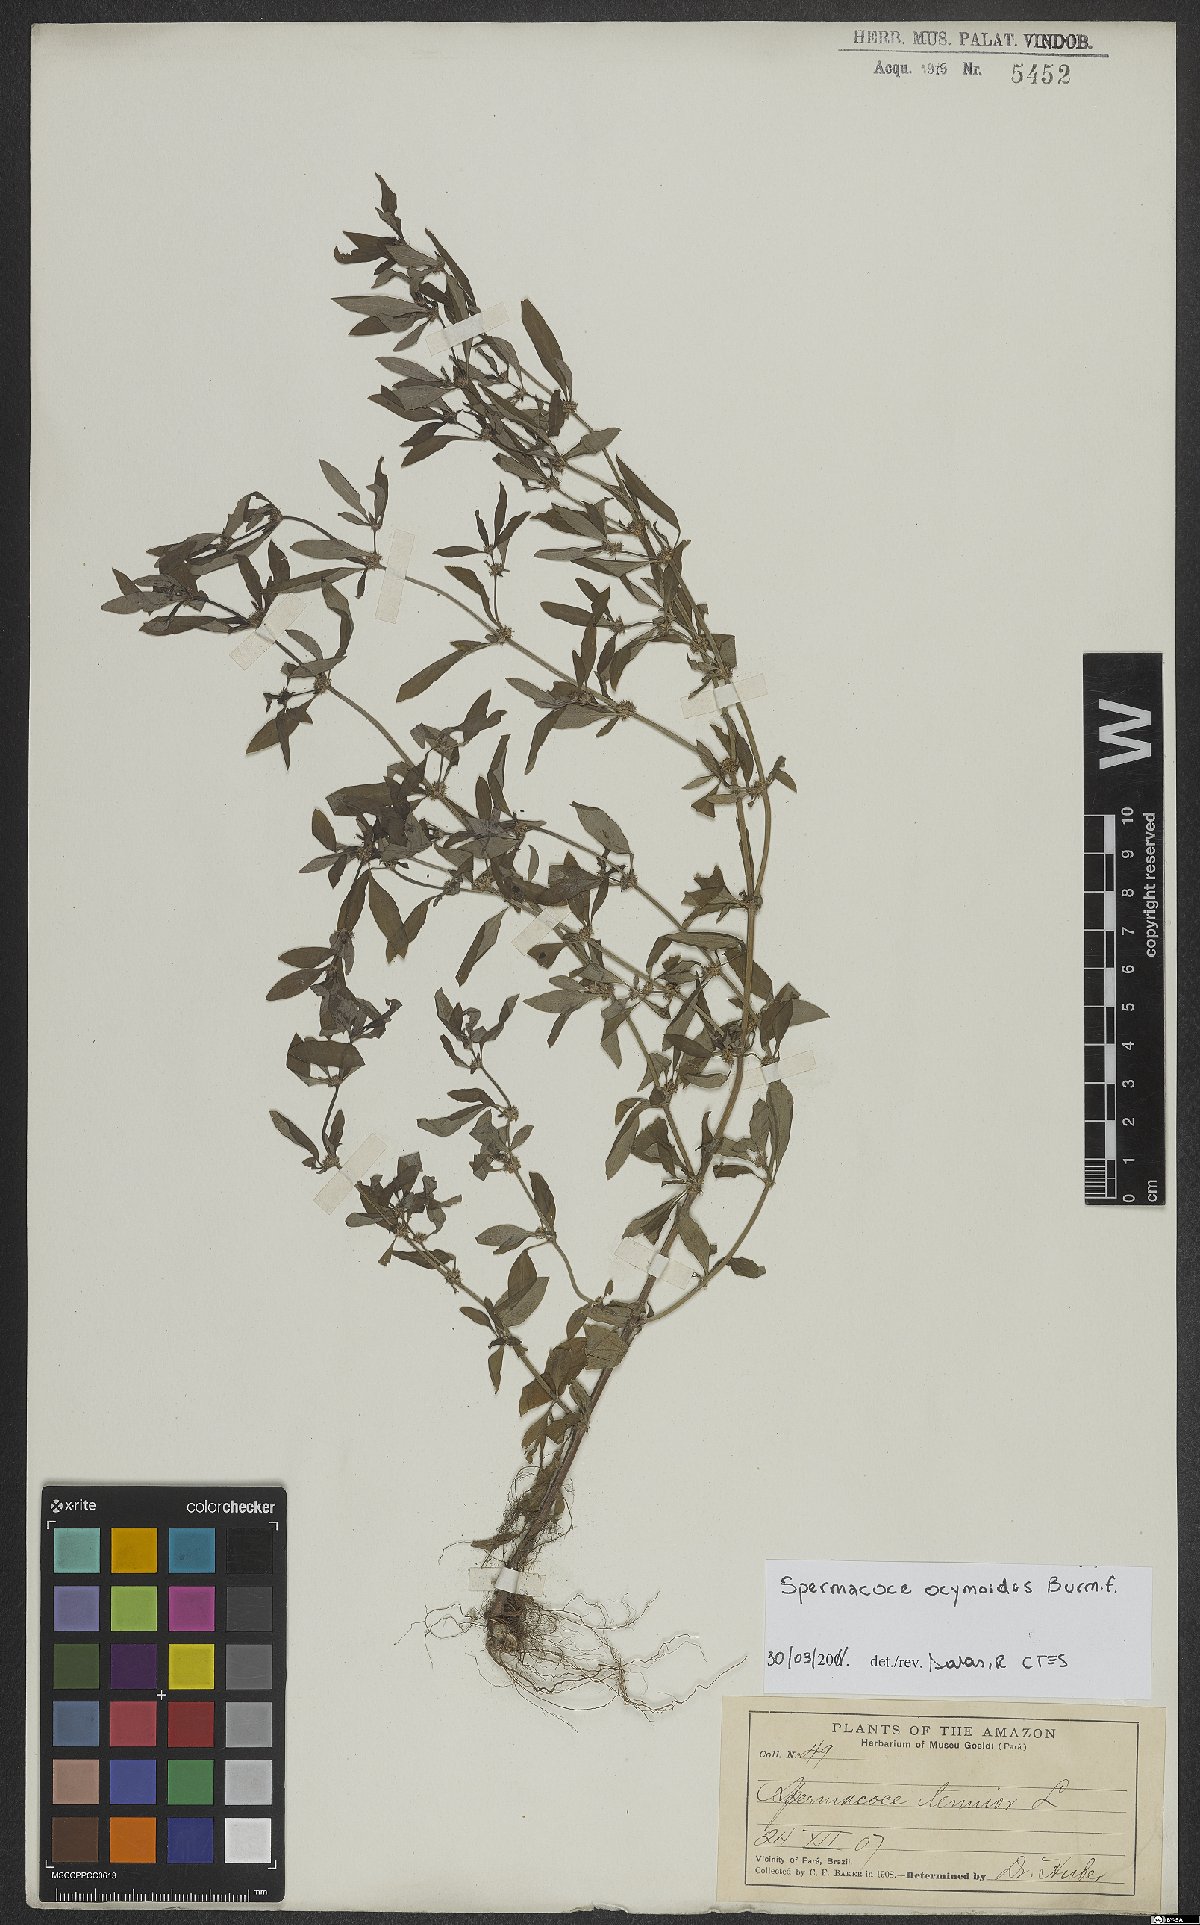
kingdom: Plantae
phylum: Tracheophyta
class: Magnoliopsida
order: Gentianales
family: Rubiaceae
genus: Spermacoce
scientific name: Spermacoce ocymoides
